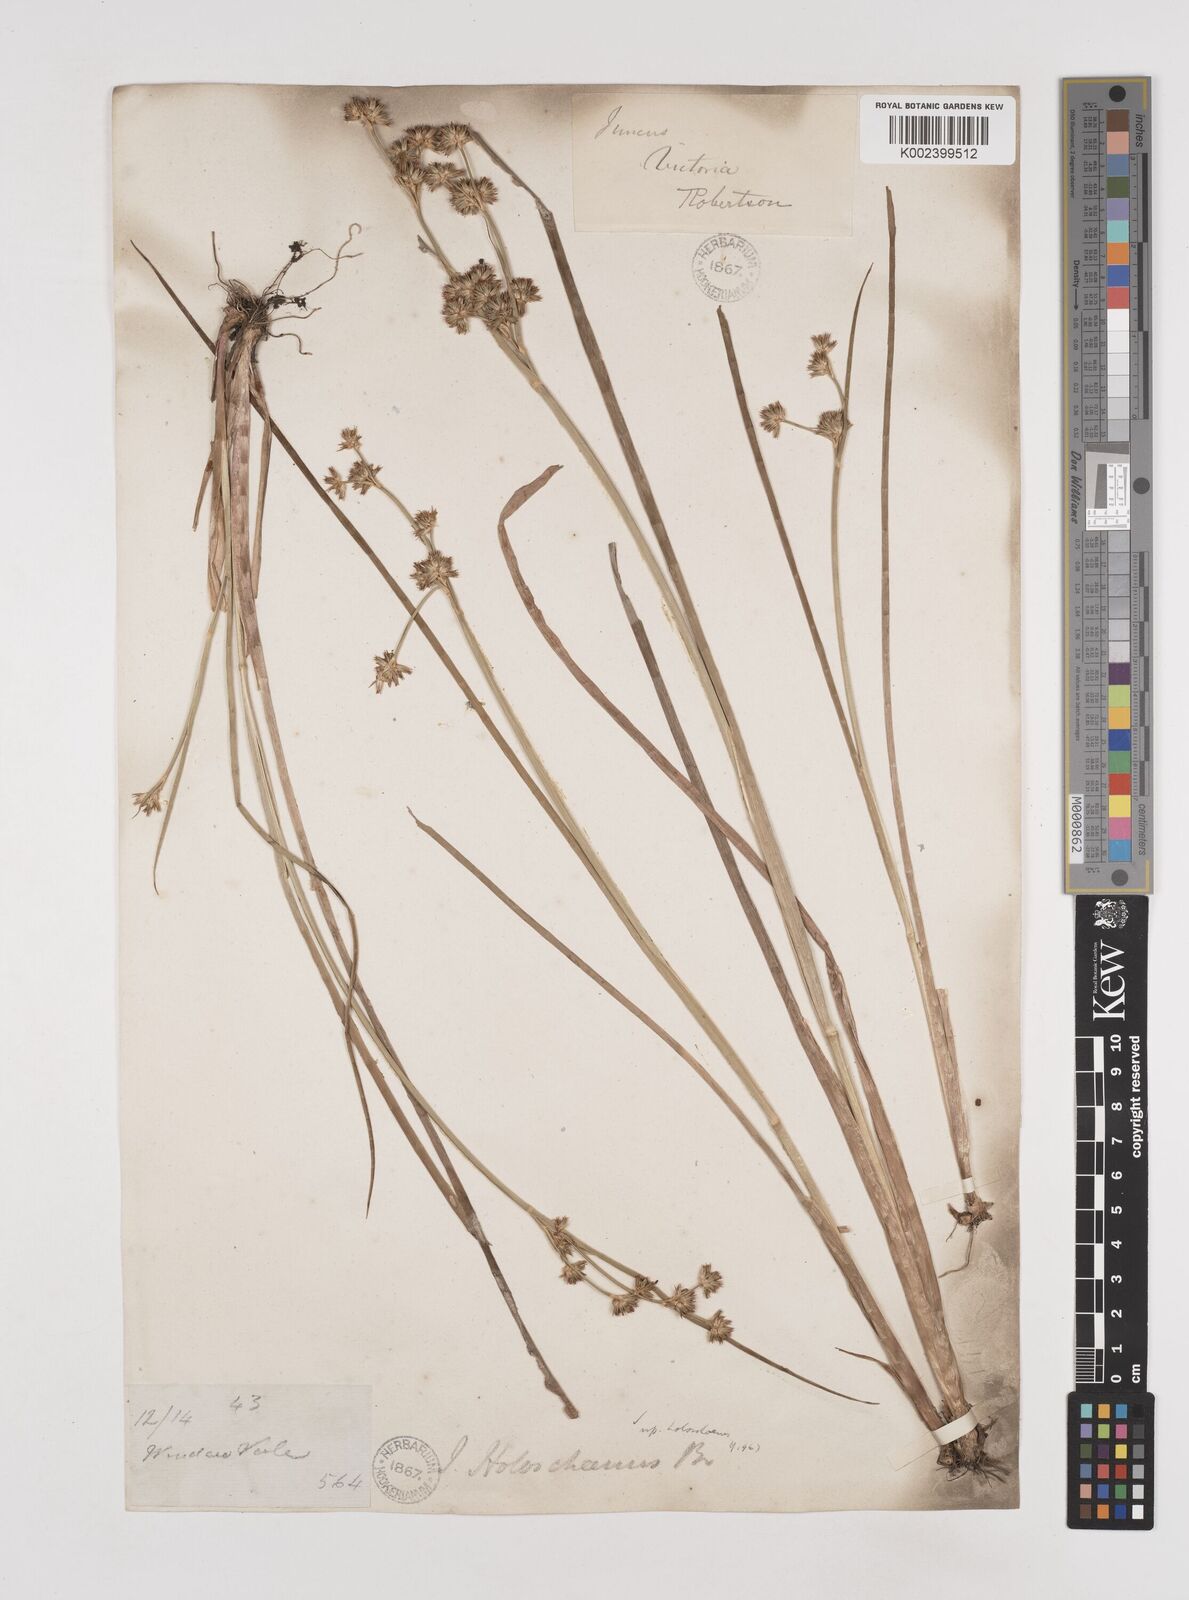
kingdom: Plantae
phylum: Tracheophyta
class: Liliopsida
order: Poales
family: Juncaceae
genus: Juncus
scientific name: Juncus holoschoenus
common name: Joint-leaf rush
